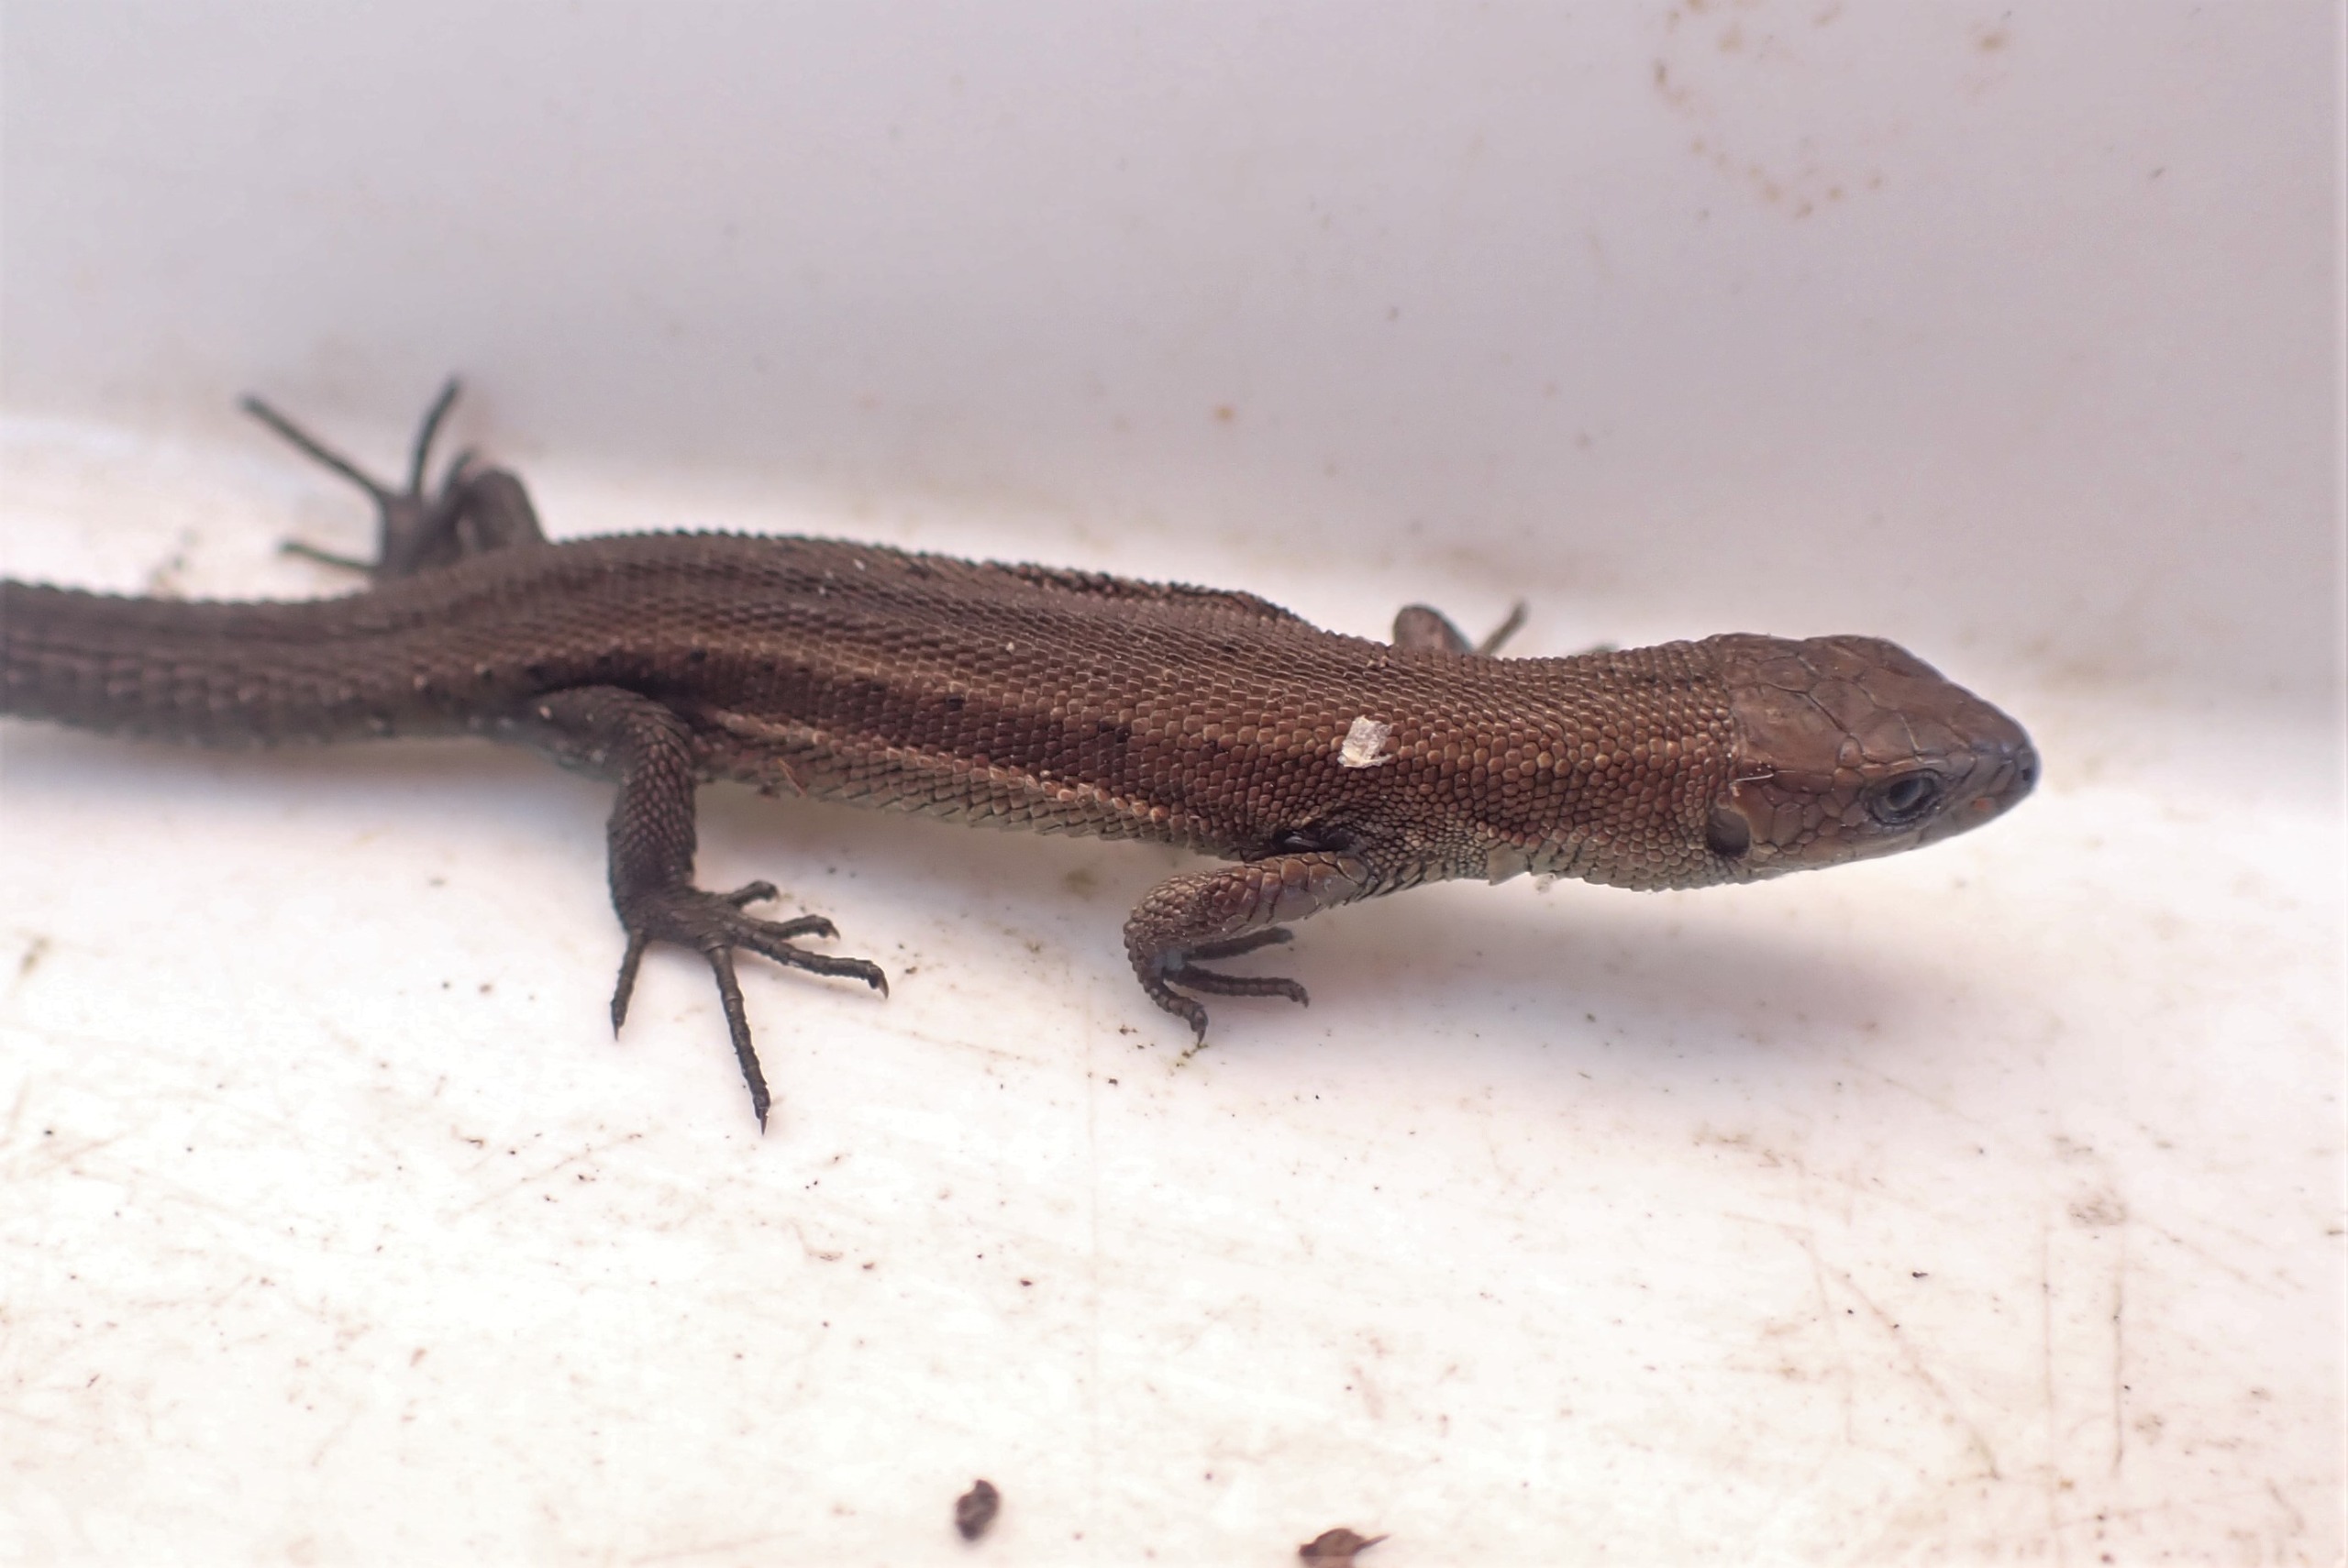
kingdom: Animalia
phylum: Chordata
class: Squamata
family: Lacertidae
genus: Zootoca
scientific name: Zootoca vivipara
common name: Skovfirben
